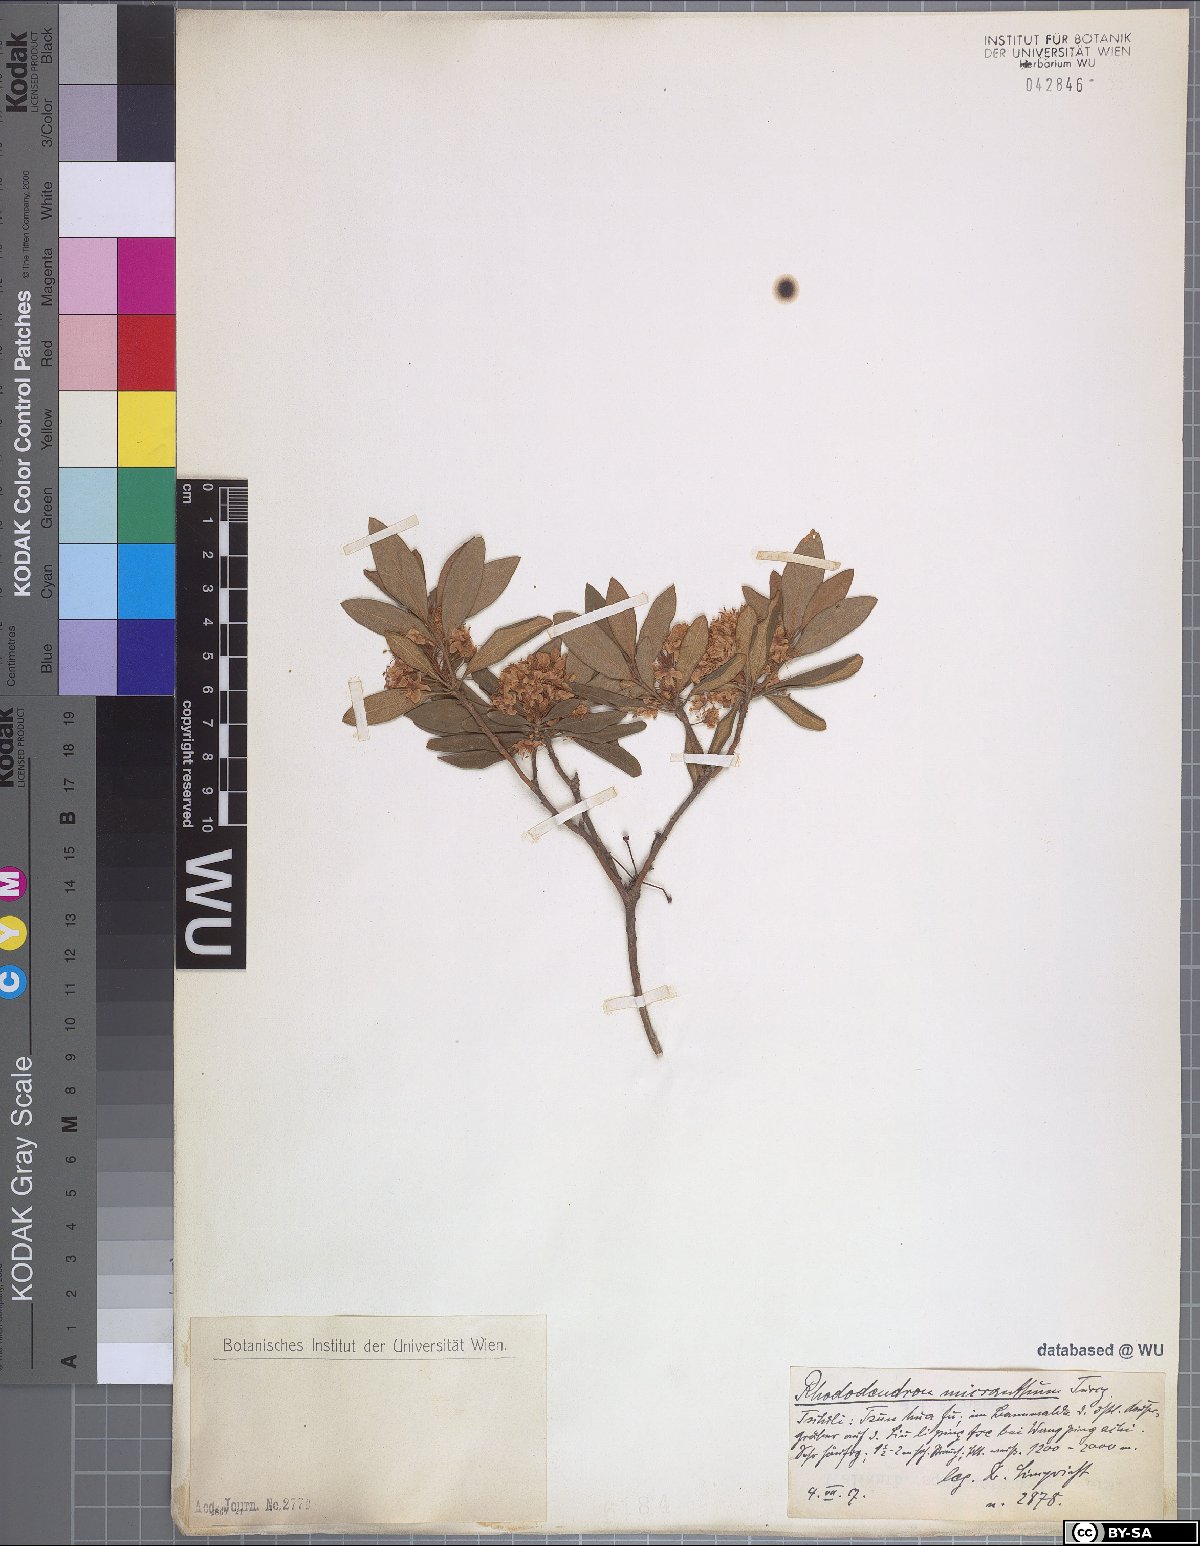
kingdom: Plantae
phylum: Tracheophyta
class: Magnoliopsida
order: Ericales
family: Ericaceae
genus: Rhododendron
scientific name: Rhododendron micranthum
